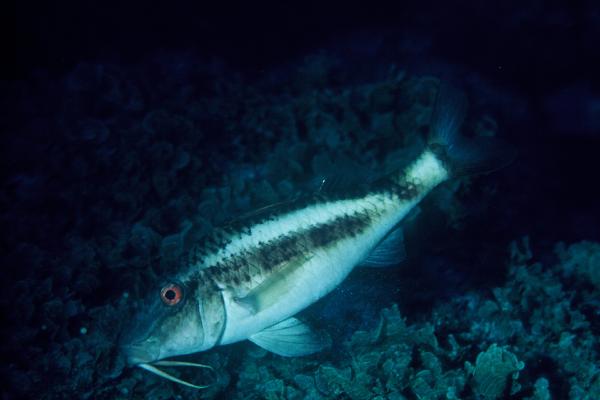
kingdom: Animalia
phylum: Chordata
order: Perciformes
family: Mullidae
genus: Parupeneus
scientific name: Parupeneus orientalis
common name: Rapanui goatfish
